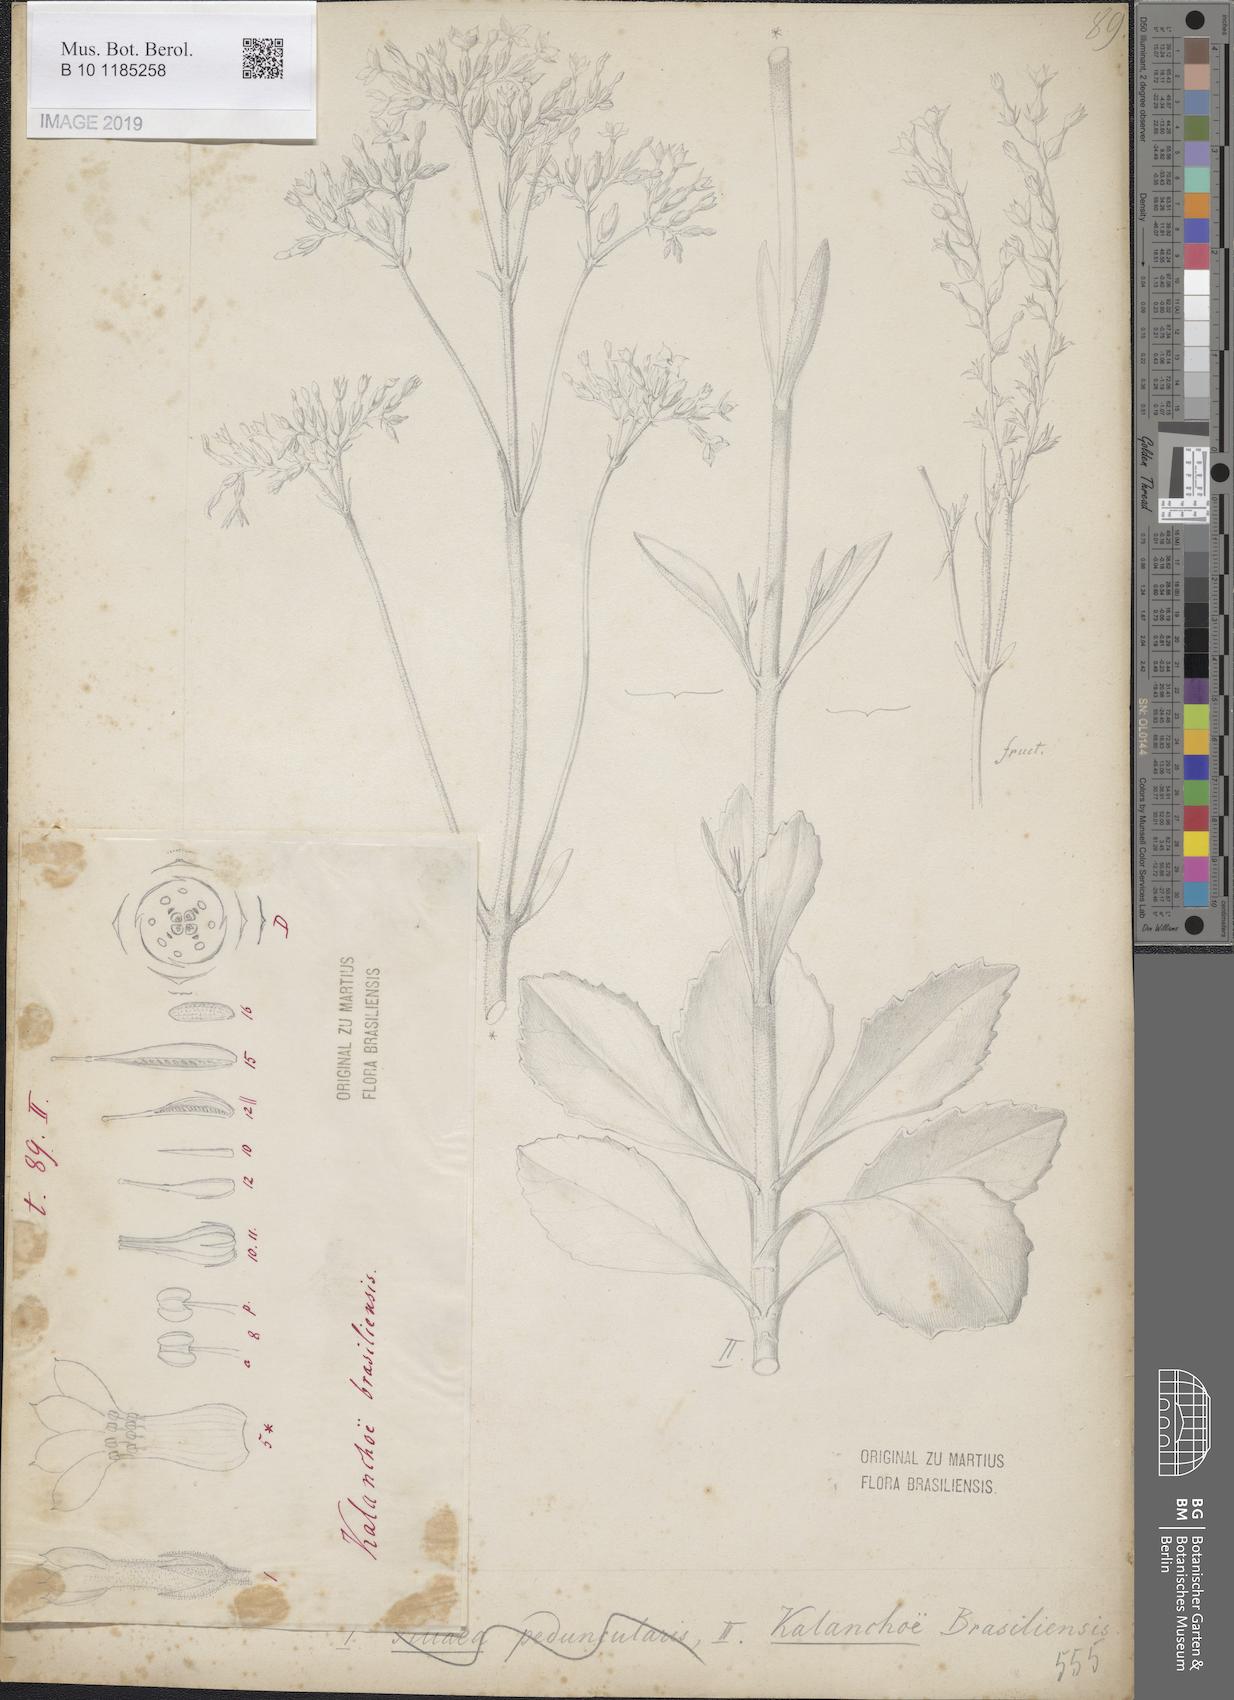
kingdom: Plantae
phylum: Tracheophyta
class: Magnoliopsida
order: Saxifragales
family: Crassulaceae
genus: Kalanchoe
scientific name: Kalanchoe crenata
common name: Neverdie
